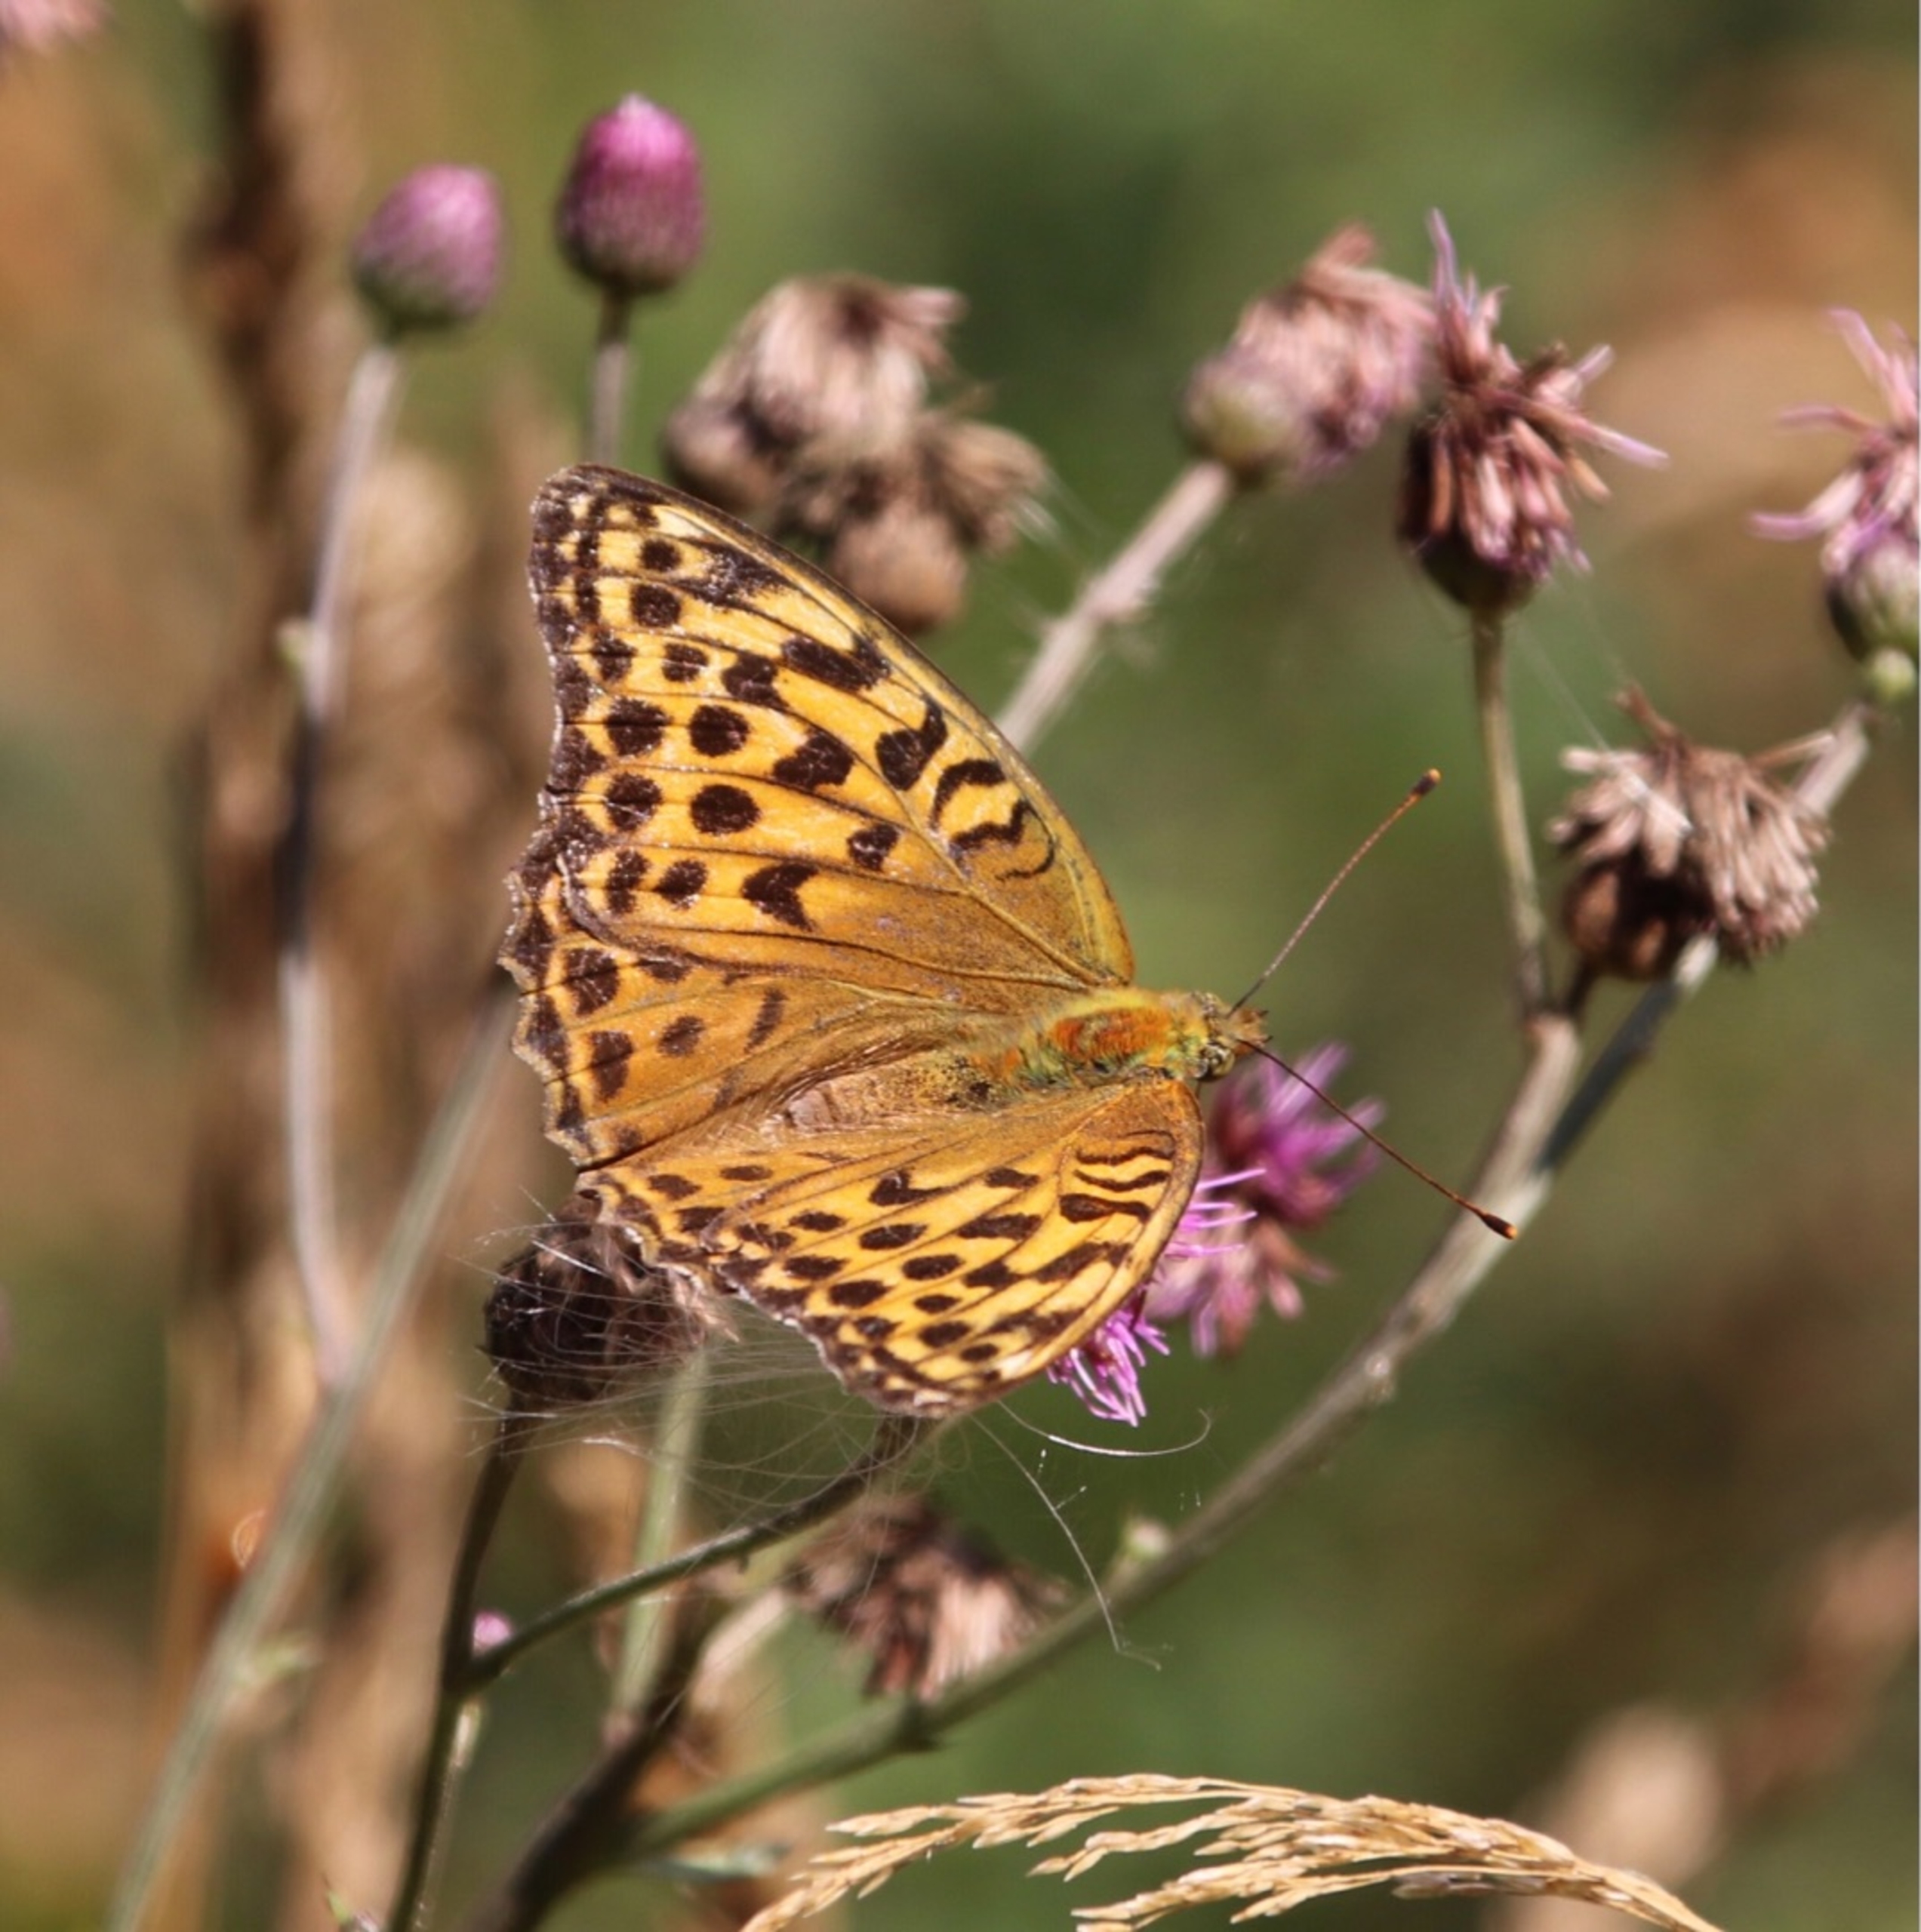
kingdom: Animalia
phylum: Arthropoda
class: Insecta
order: Lepidoptera
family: Nymphalidae
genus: Argynnis
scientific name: Argynnis paphia
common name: Kejserkåbe
